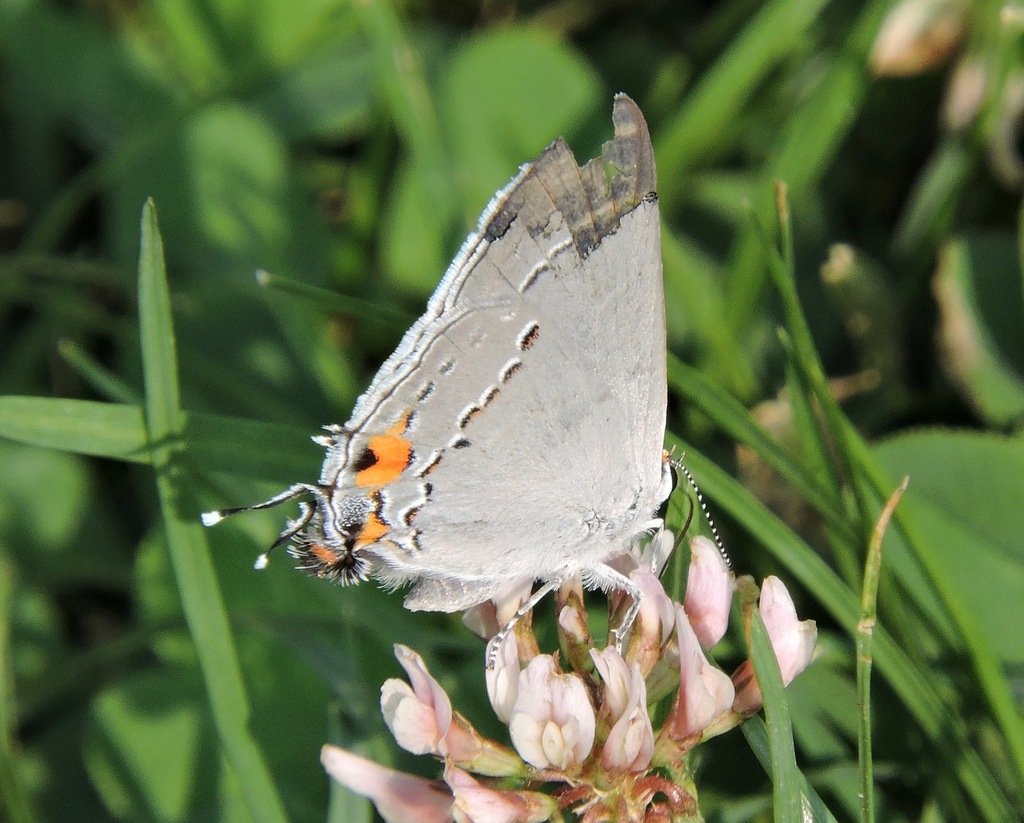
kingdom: Animalia
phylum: Arthropoda
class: Insecta
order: Lepidoptera
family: Lycaenidae
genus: Strymon
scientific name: Strymon melinus
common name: Gray Hairstreak
